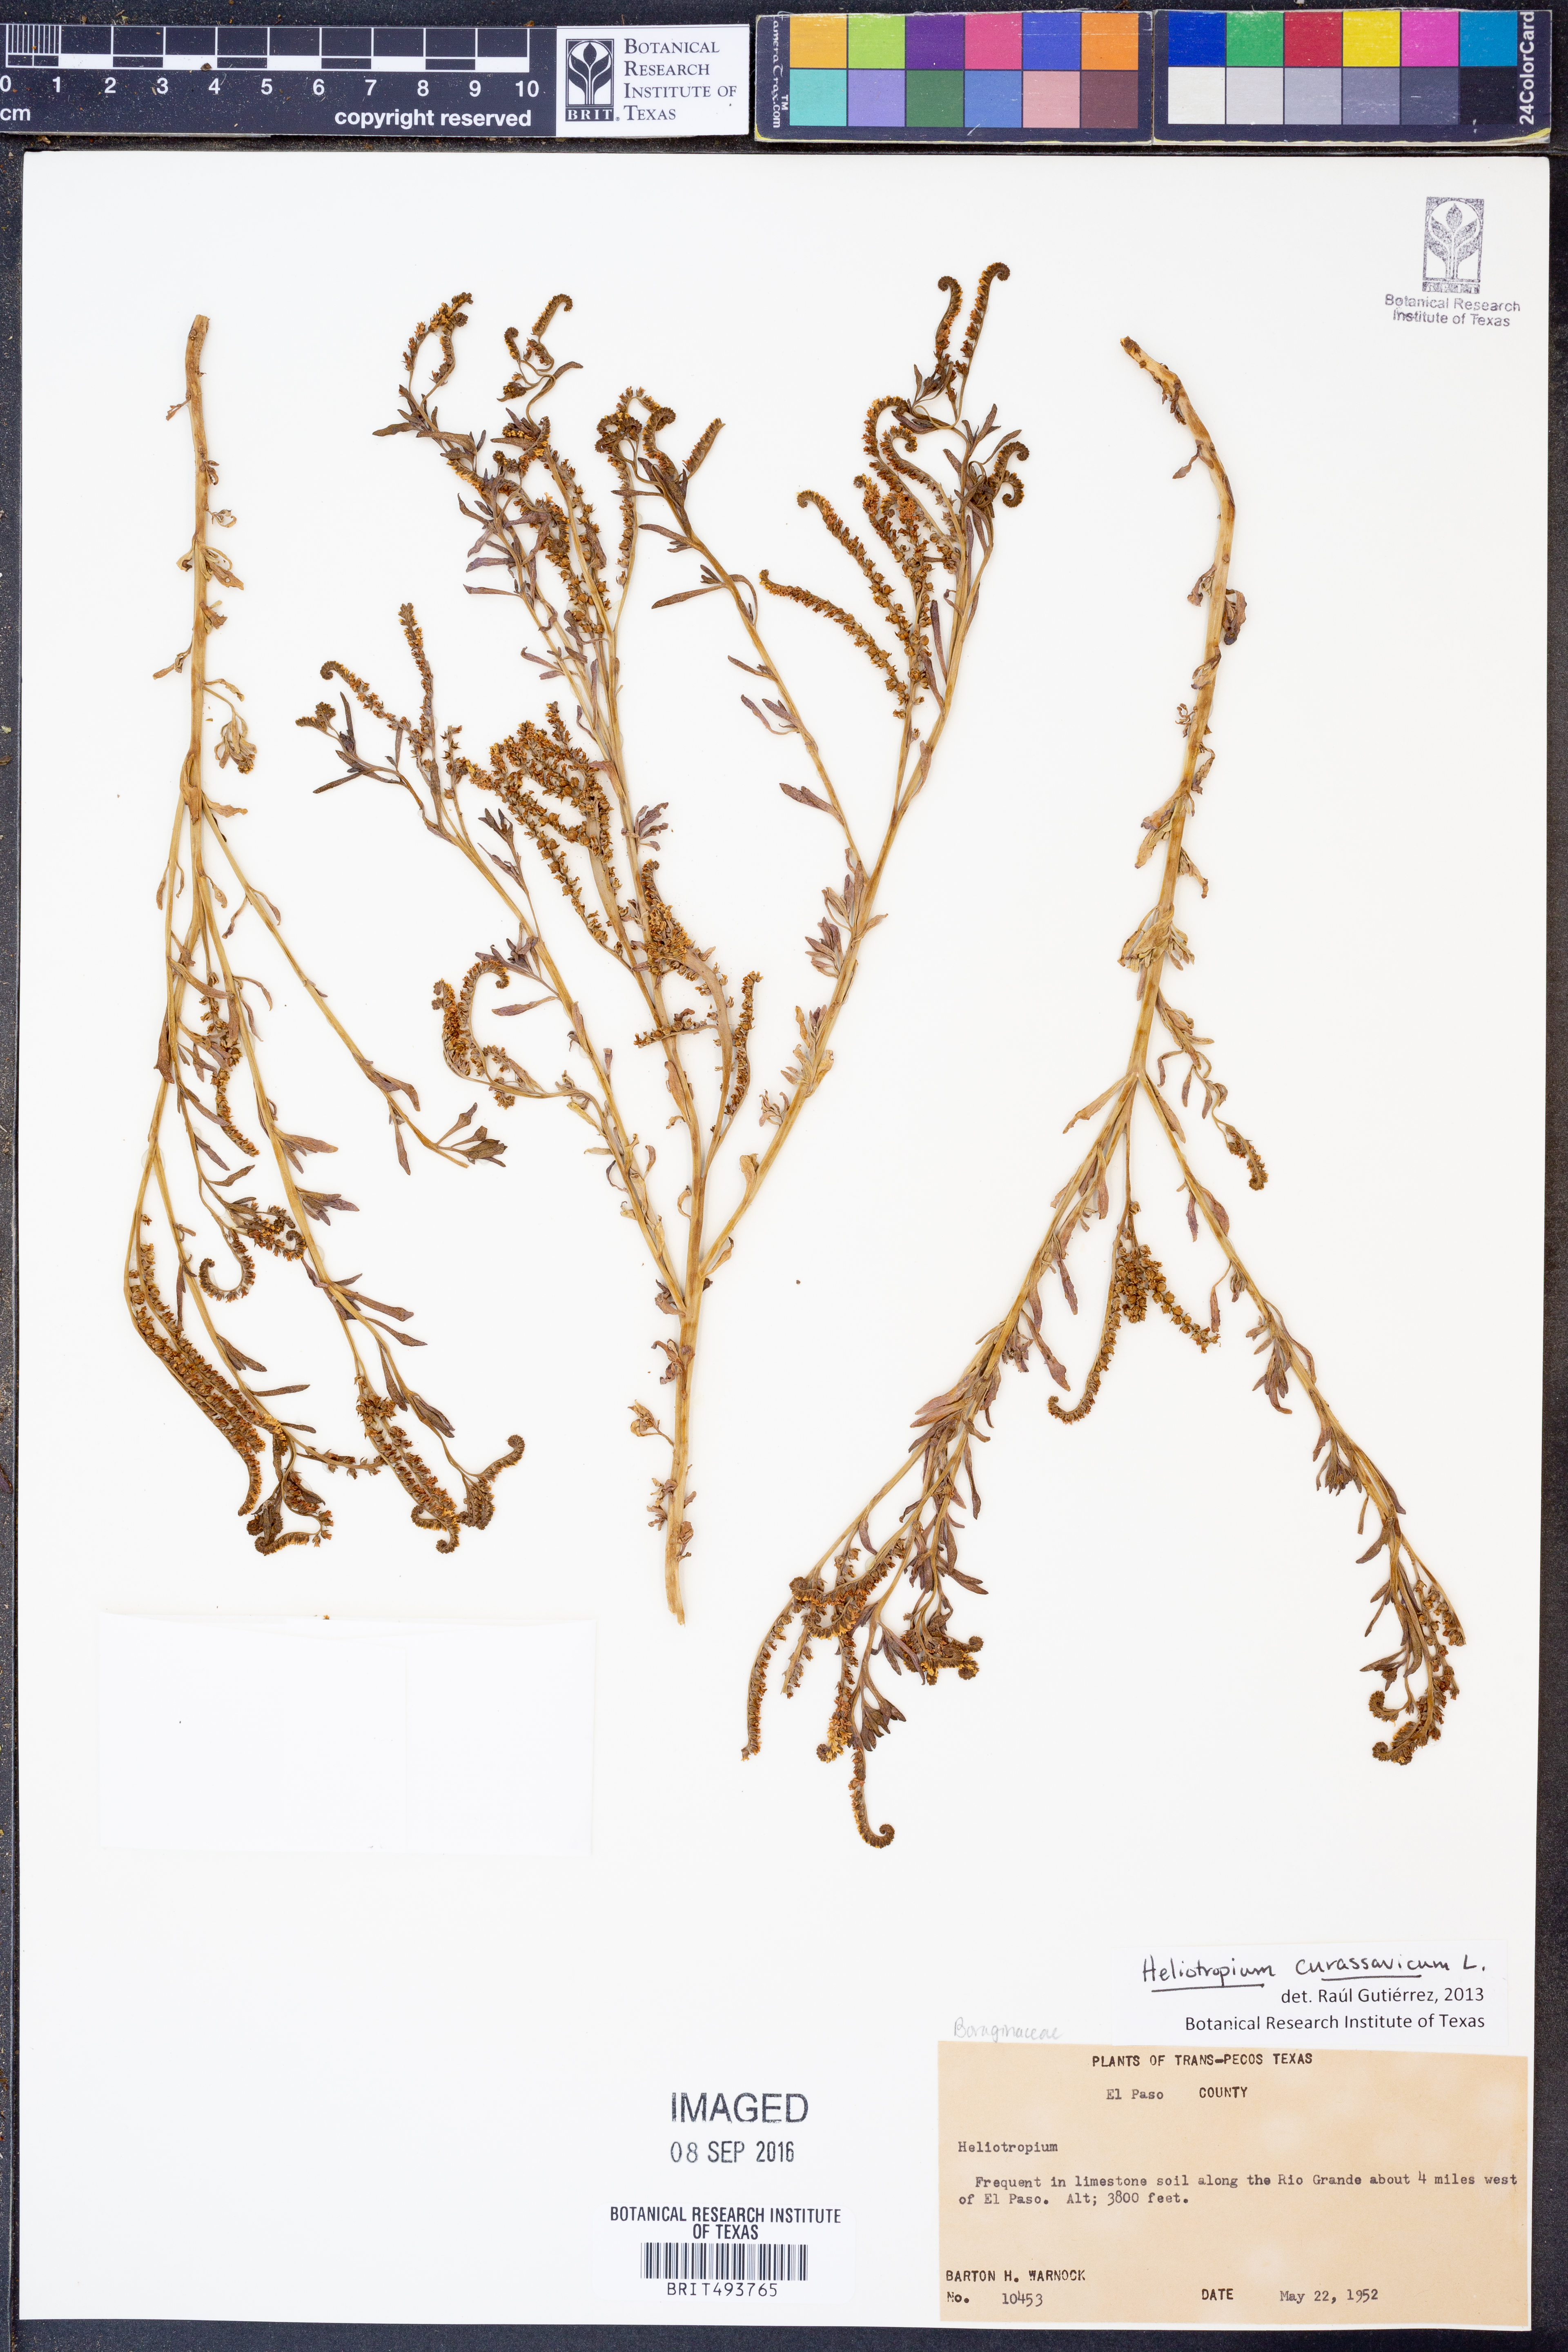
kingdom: Plantae
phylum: Tracheophyta
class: Magnoliopsida
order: Boraginales
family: Heliotropiaceae
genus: Heliotropium
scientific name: Heliotropium curassavicum
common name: Seaside heliotrope
